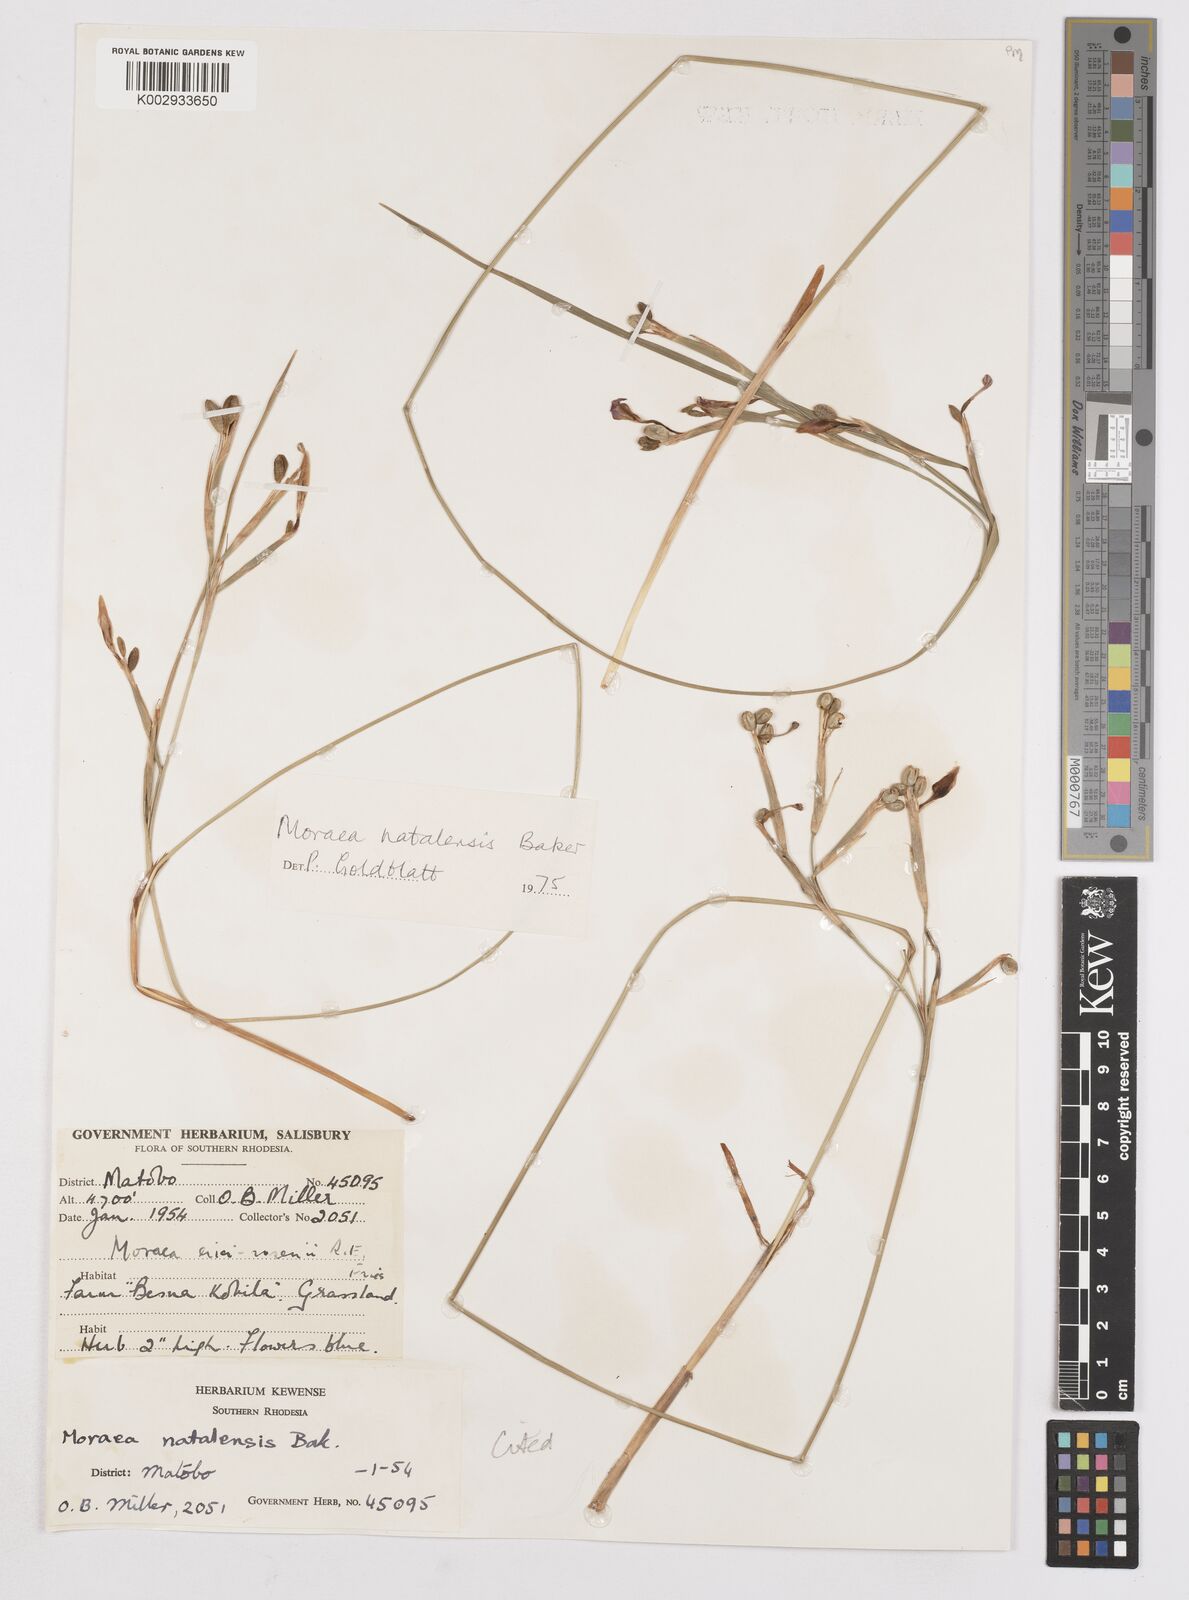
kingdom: Plantae
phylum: Tracheophyta
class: Liliopsida
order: Asparagales
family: Iridaceae
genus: Moraea
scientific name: Moraea natalensis
